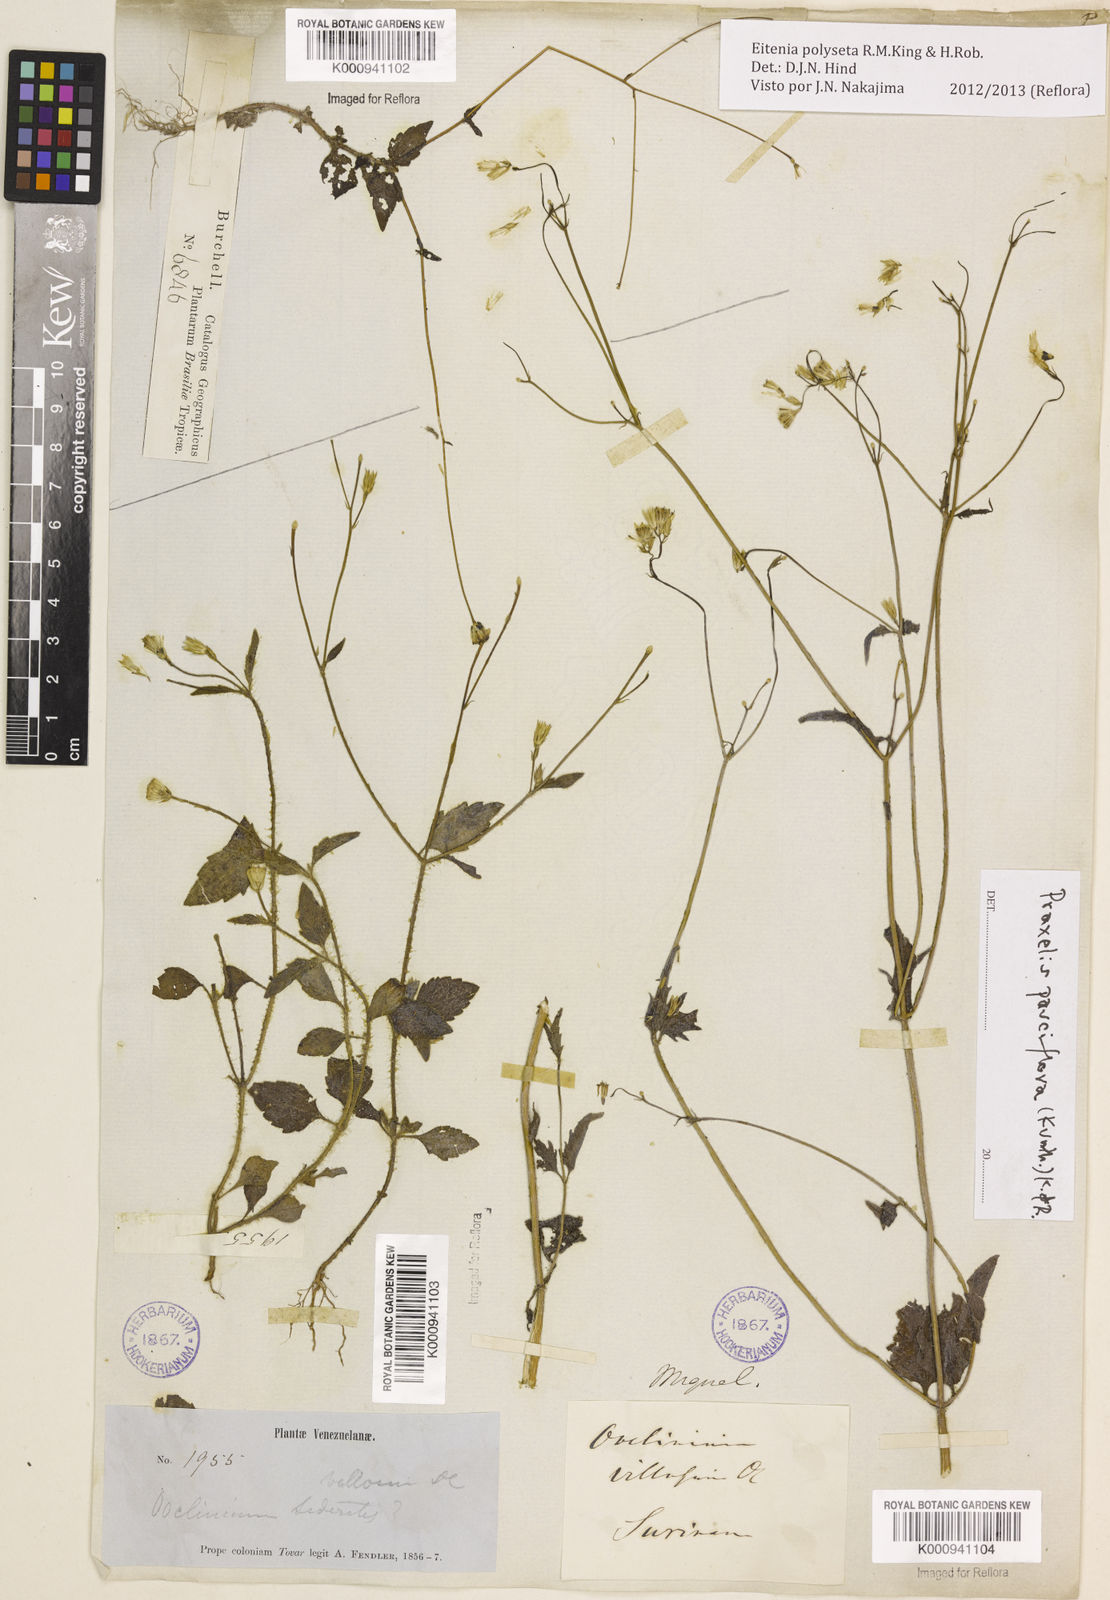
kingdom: Plantae
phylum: Tracheophyta
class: Magnoliopsida
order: Asterales
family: Asteraceae
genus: Eitenia
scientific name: Eitenia polyseta
